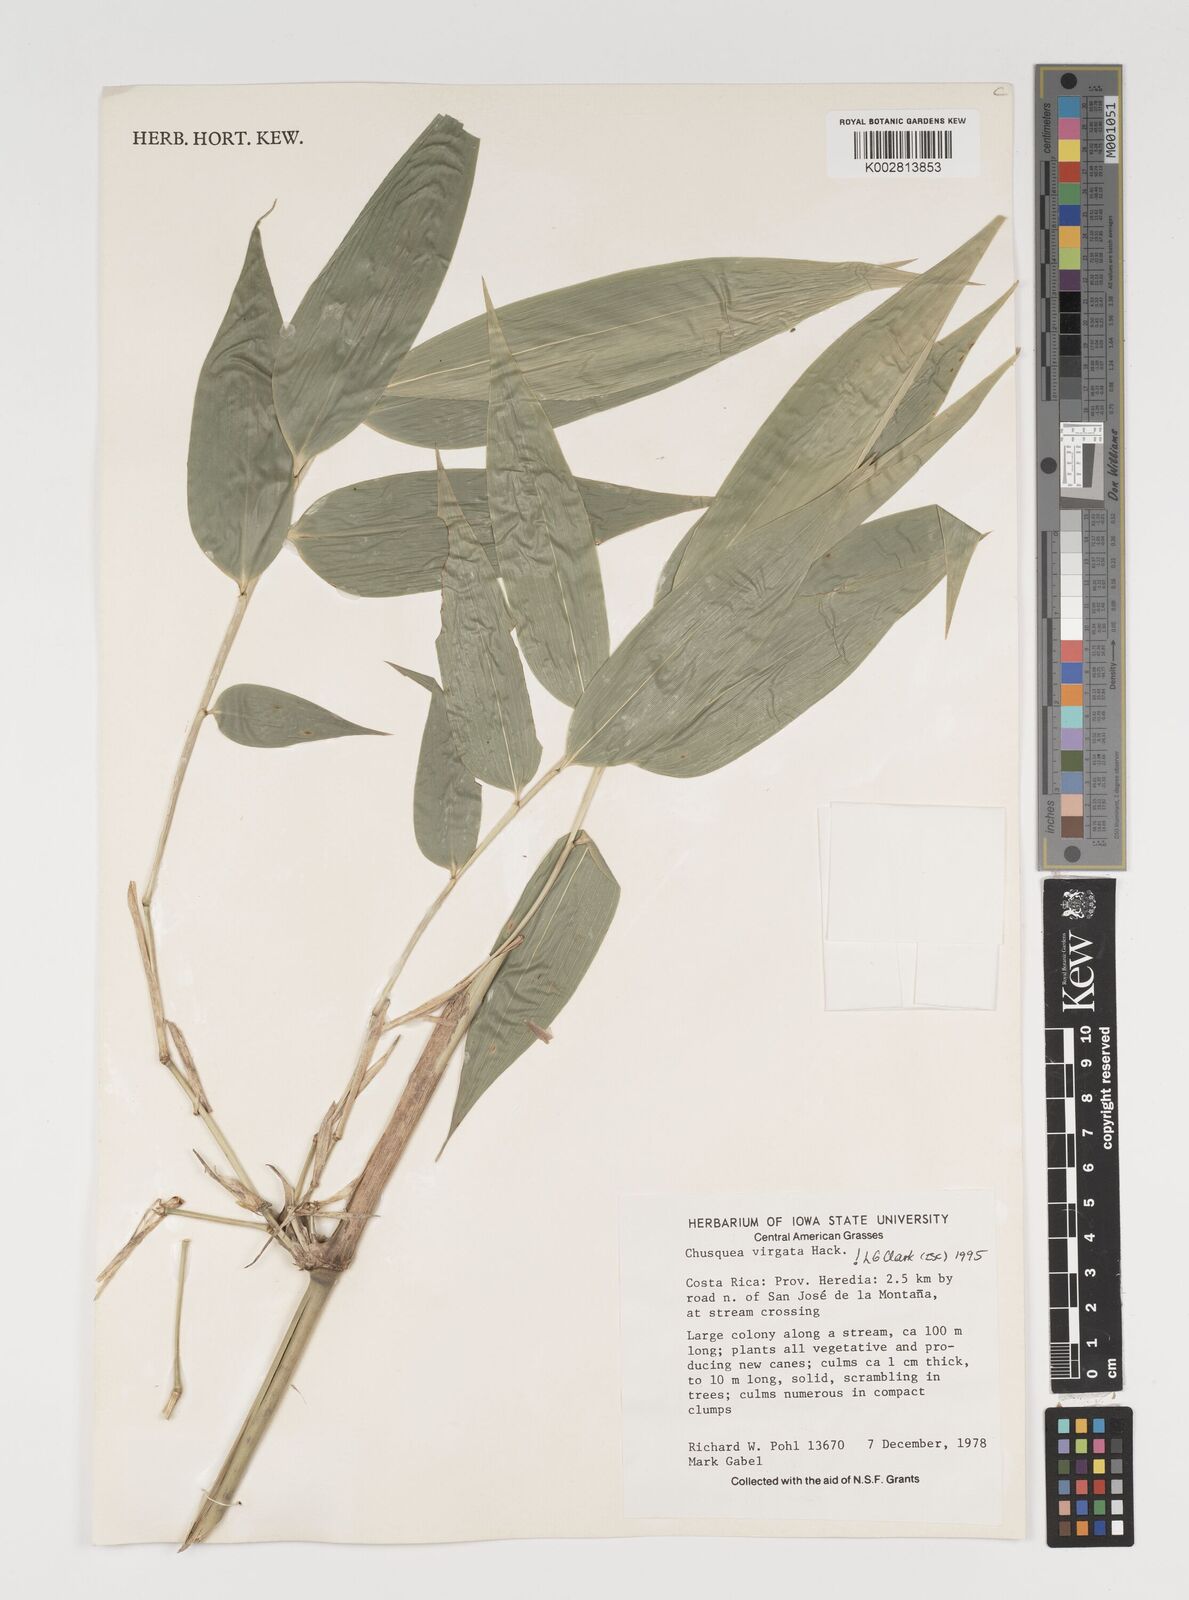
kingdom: Plantae
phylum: Tracheophyta
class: Liliopsida
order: Poales
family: Poaceae
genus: Chusquea
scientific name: Chusquea virgata
